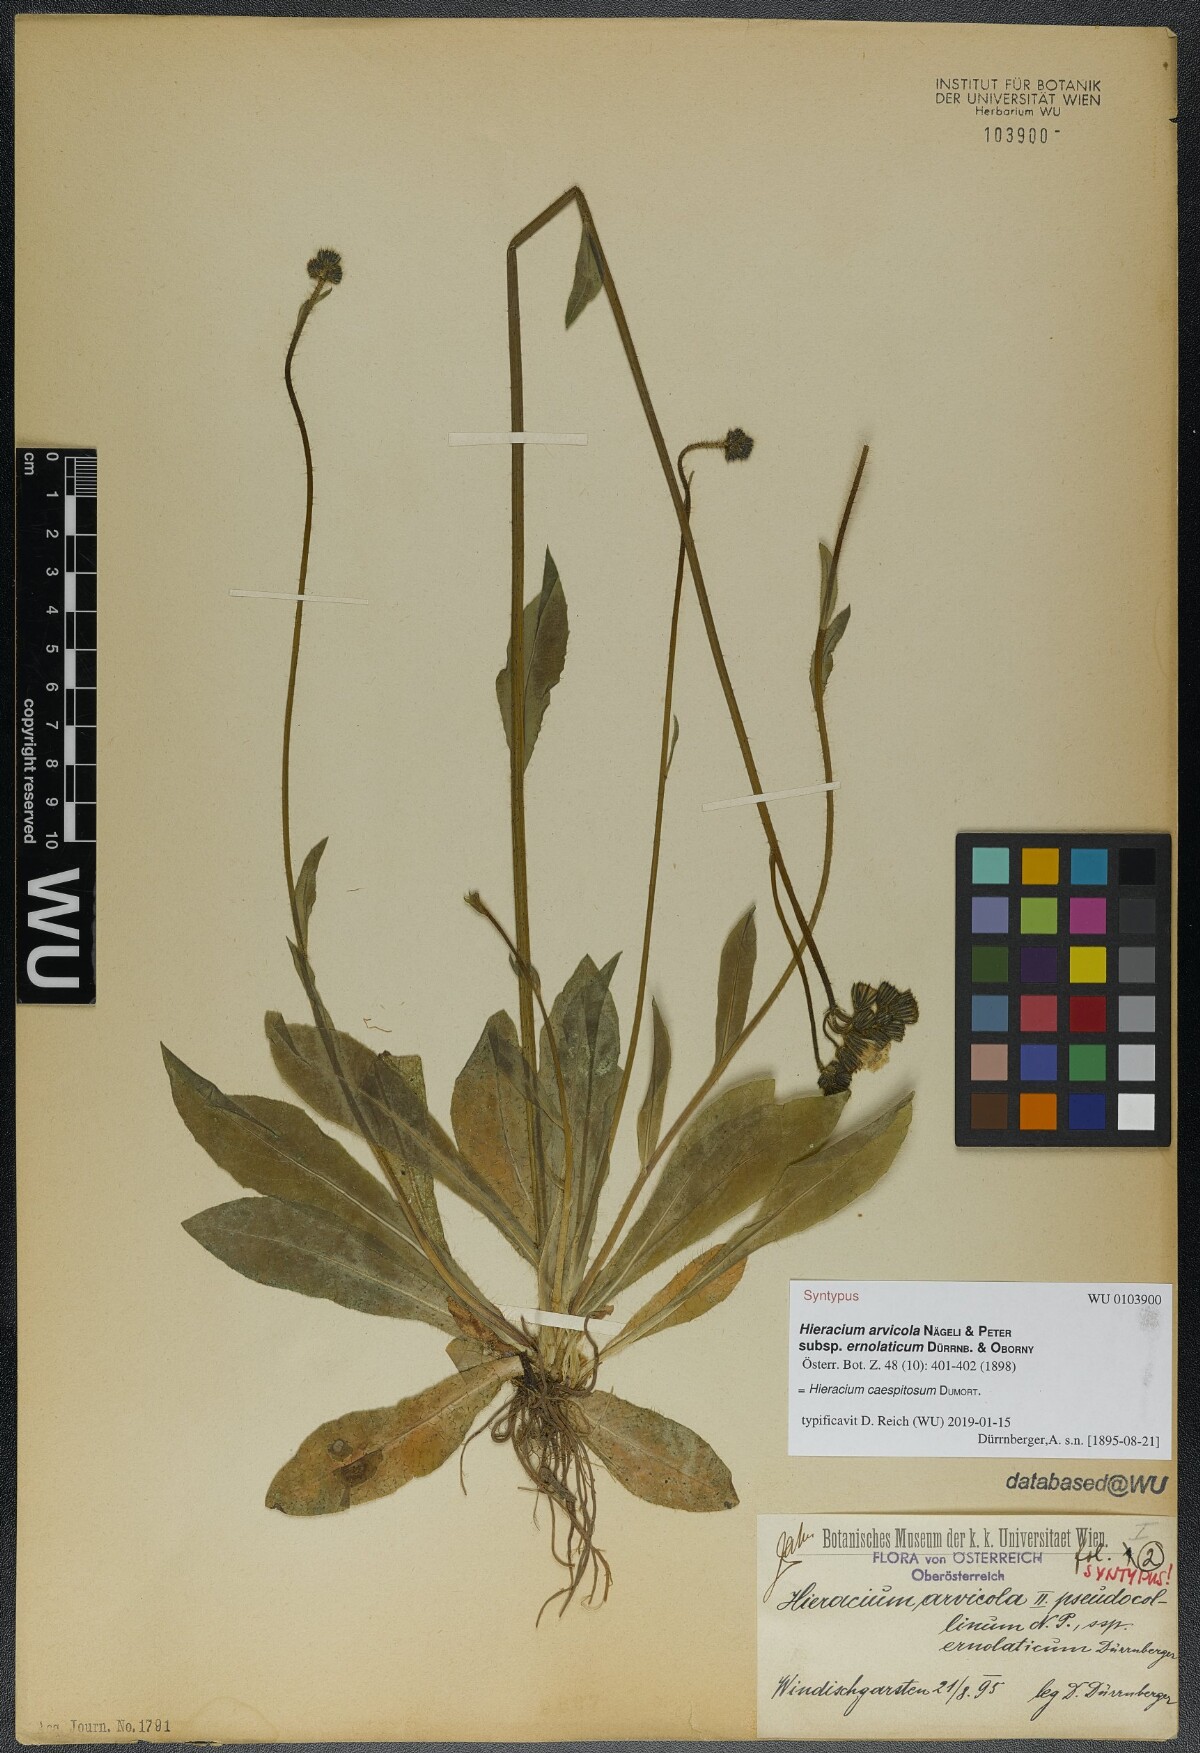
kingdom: Plantae
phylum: Tracheophyta
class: Magnoliopsida
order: Asterales
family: Asteraceae
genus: Pilosella
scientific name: Pilosella erythrochrista
